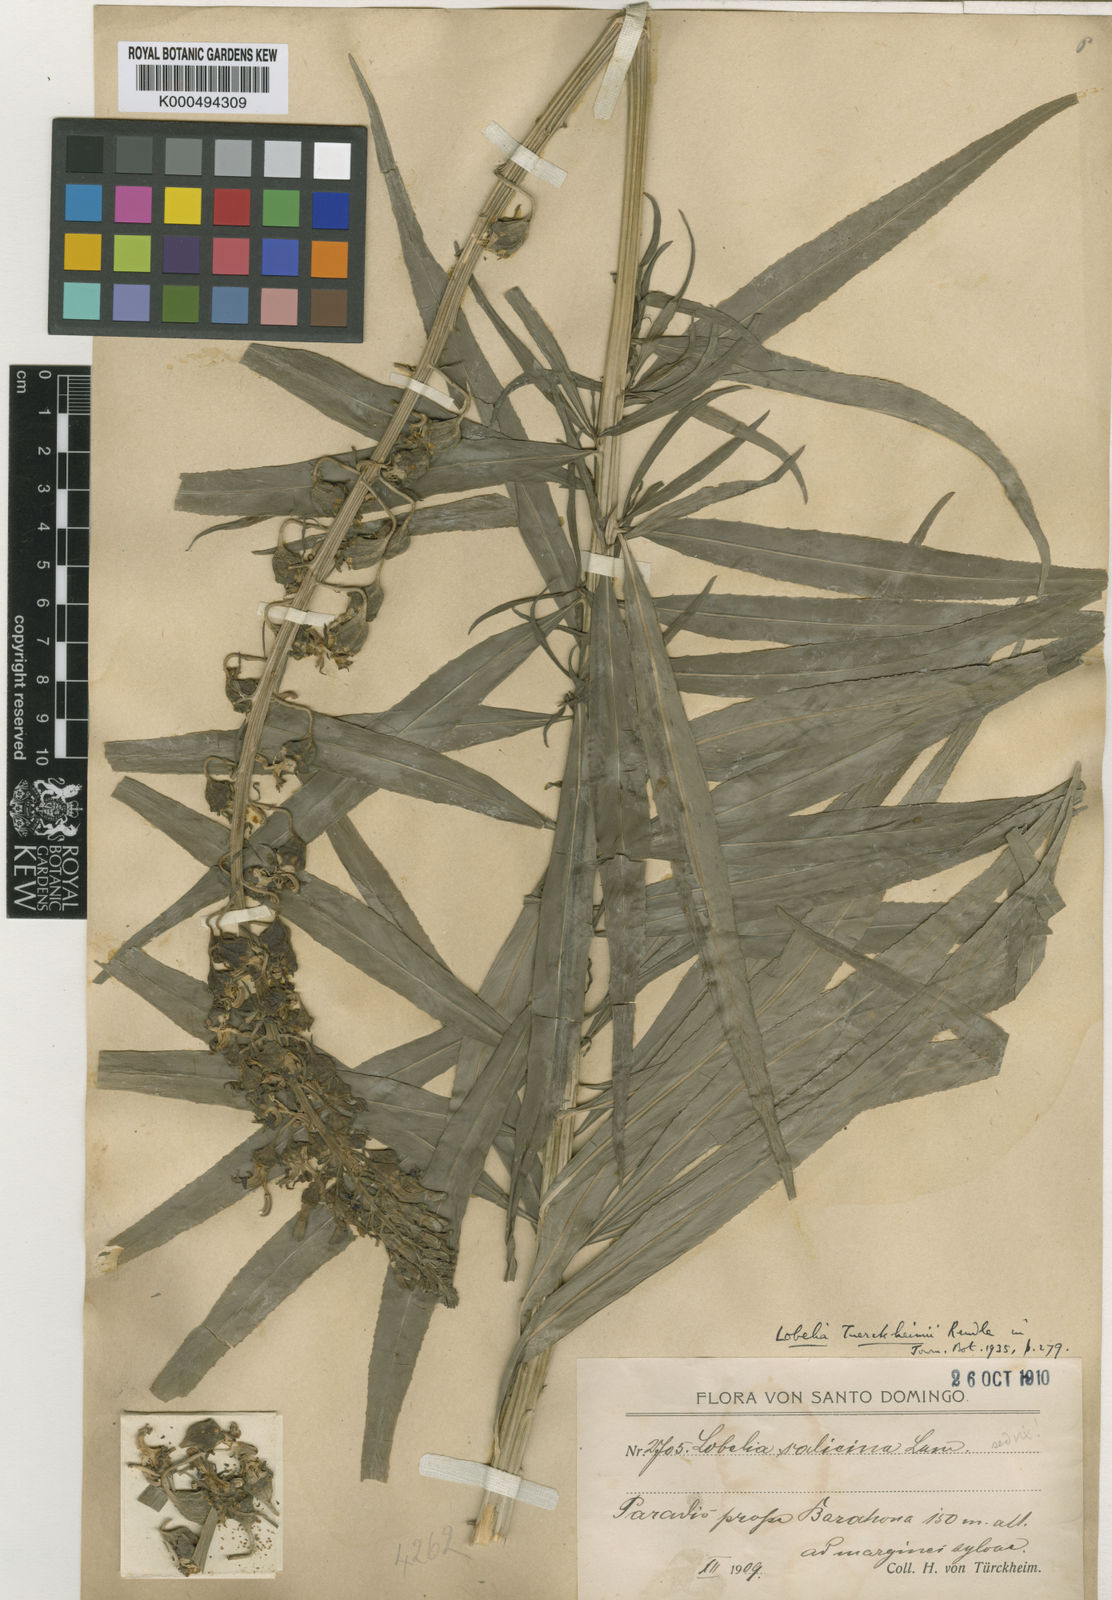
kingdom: Plantae
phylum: Tracheophyta
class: Magnoliopsida
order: Asterales
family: Campanulaceae
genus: Lobelia
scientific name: Lobelia salicina
